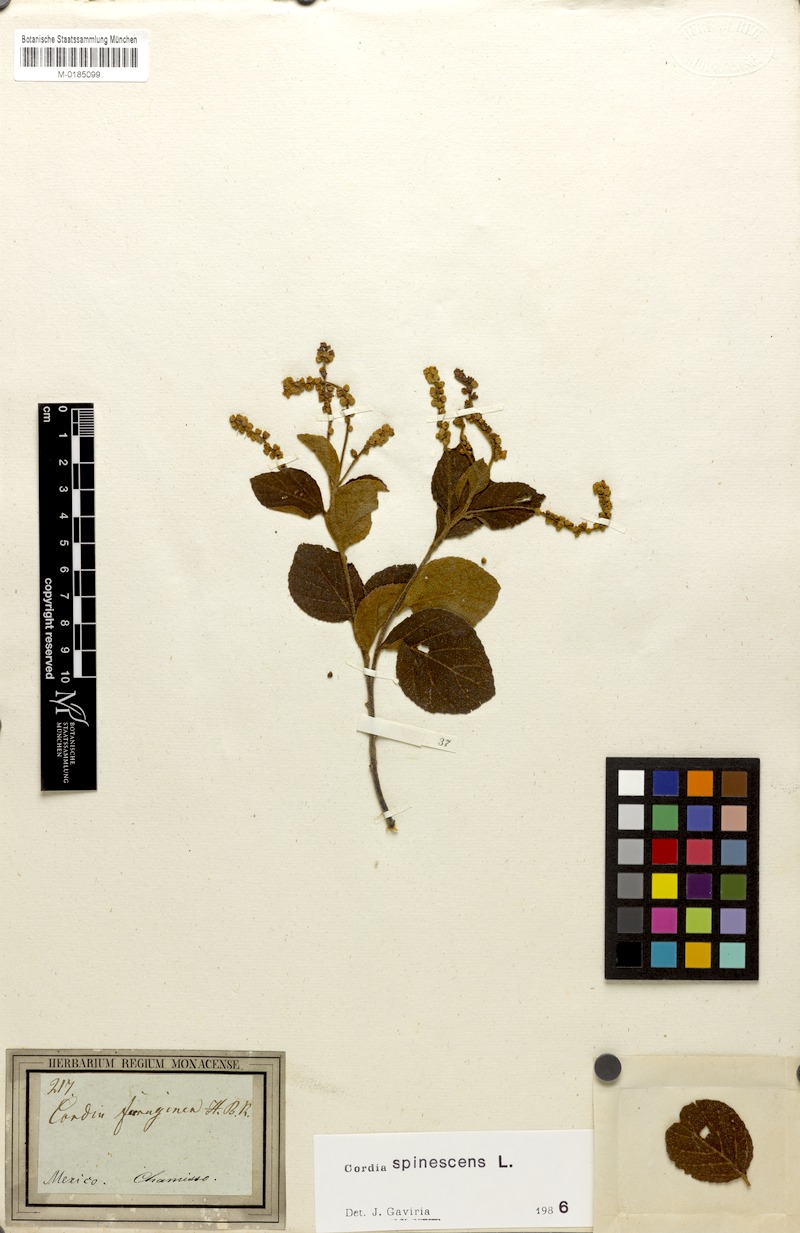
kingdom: Plantae
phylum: Tracheophyta
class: Magnoliopsida
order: Boraginales
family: Cordiaceae
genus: Varronia
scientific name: Varronia spinescens
